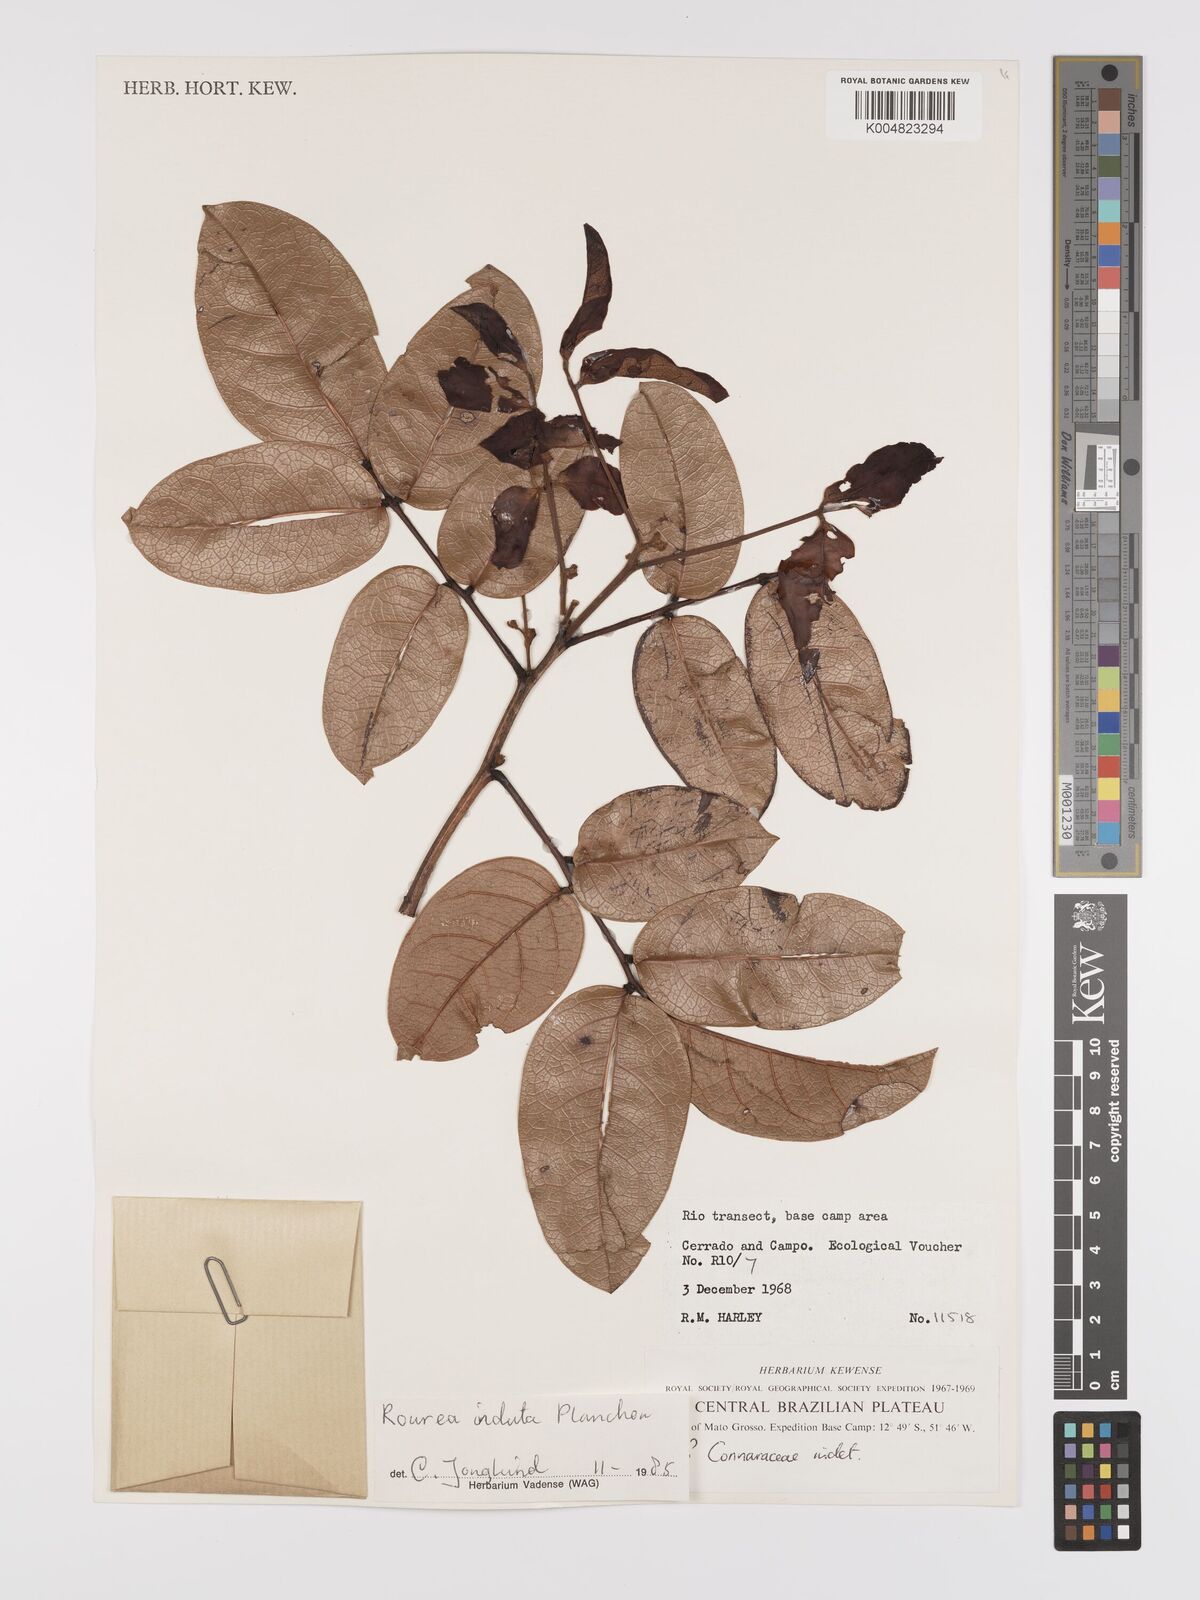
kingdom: Plantae
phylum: Tracheophyta
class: Magnoliopsida
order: Oxalidales
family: Connaraceae
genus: Rourea
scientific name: Rourea induta
